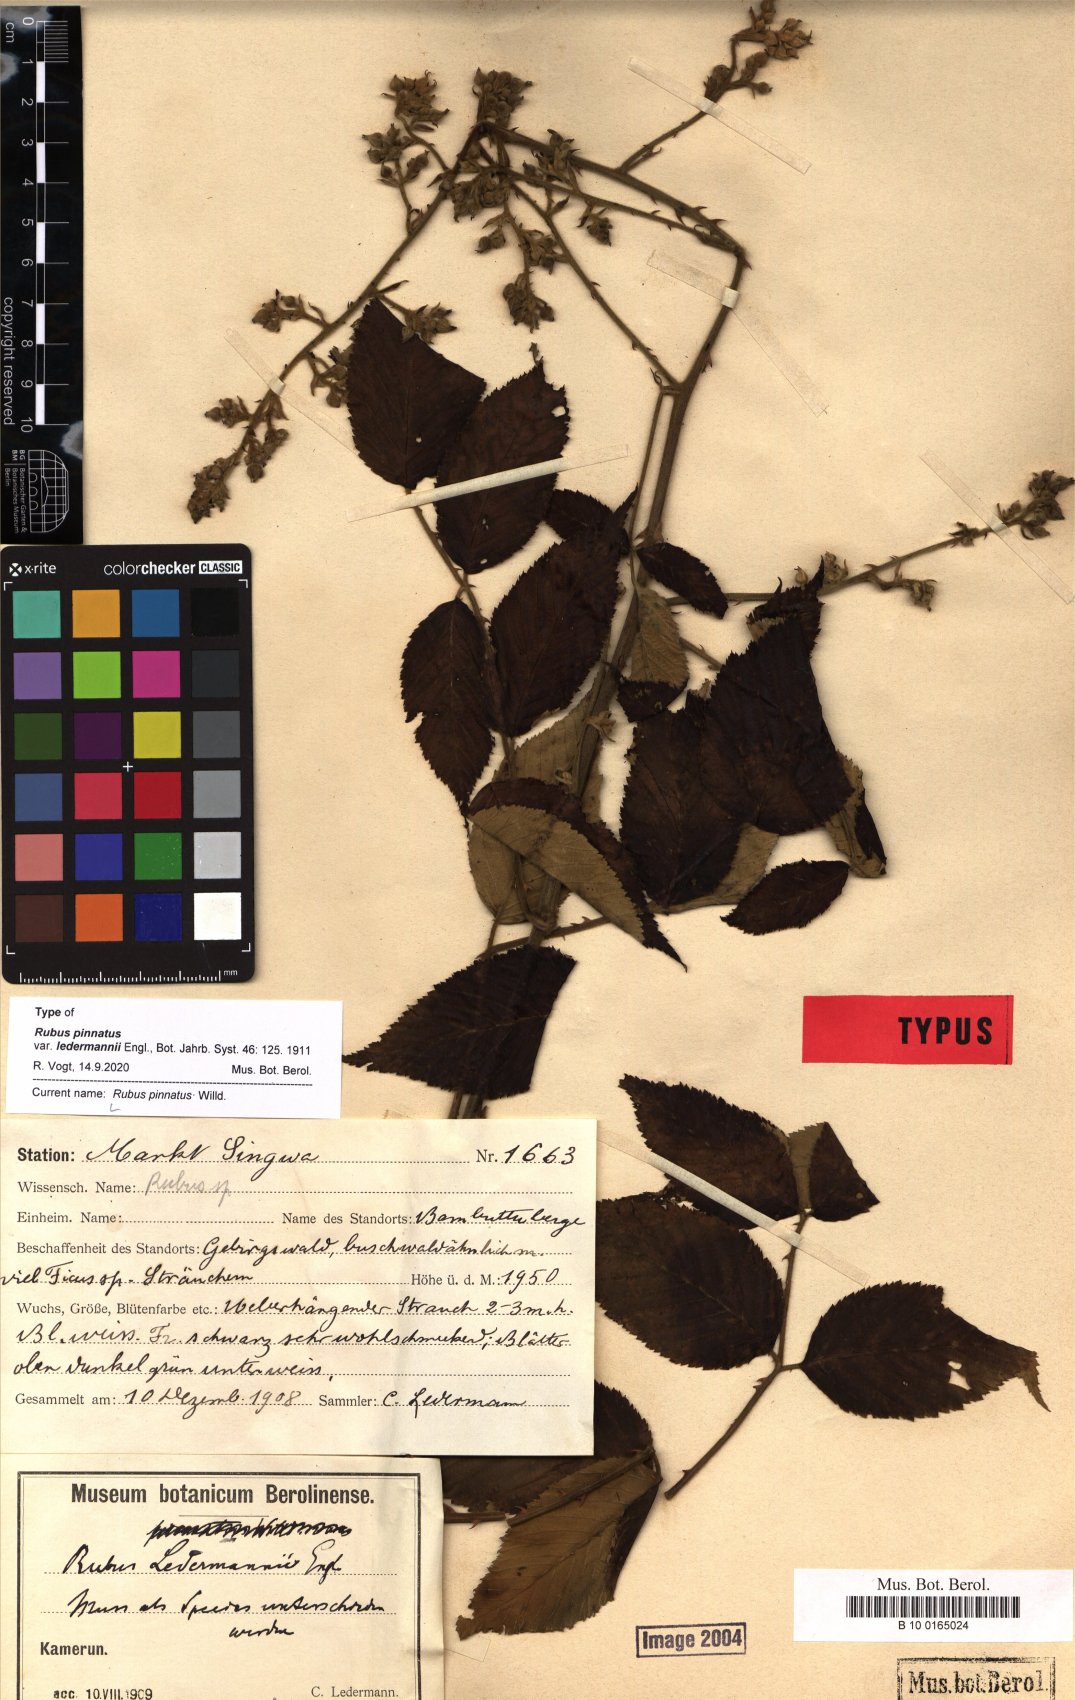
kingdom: Plantae
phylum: Tracheophyta
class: Magnoliopsida
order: Rosales
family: Rosaceae
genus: Rubus
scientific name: Rubus pinnatus
